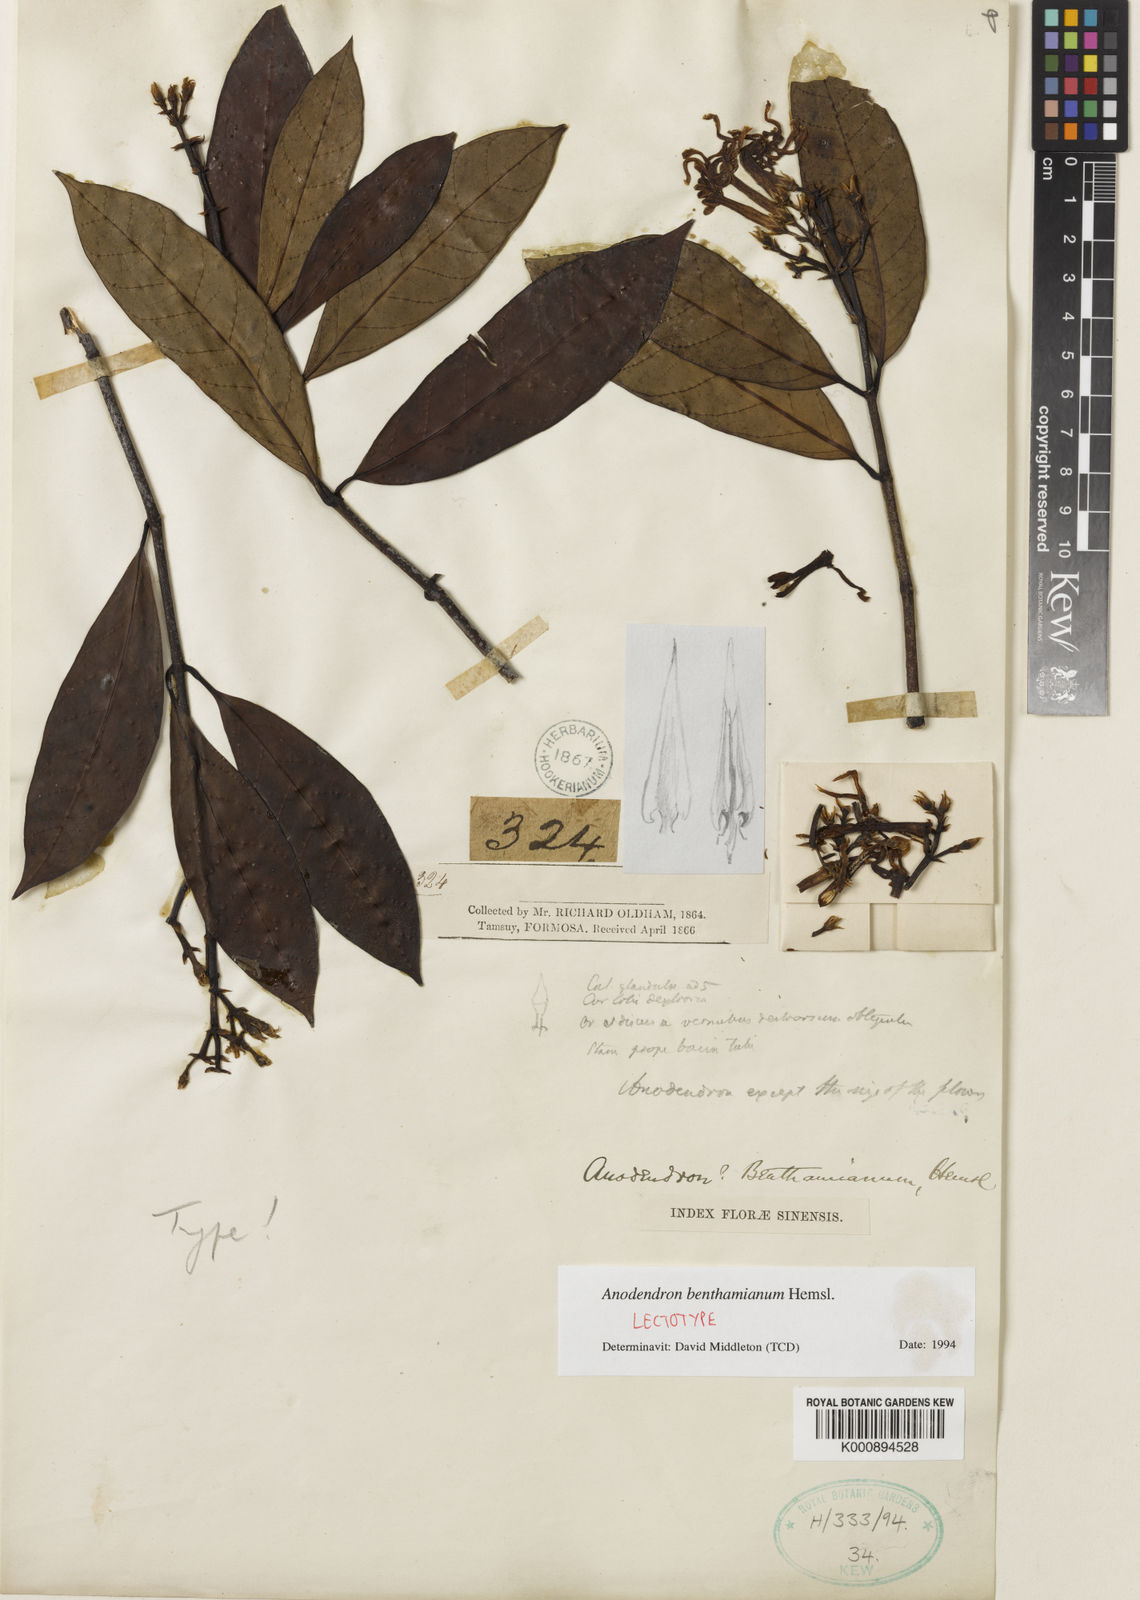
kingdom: Plantae
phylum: Tracheophyta
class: Magnoliopsida
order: Gentianales
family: Apocynaceae
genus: Anodendron
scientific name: Anodendron benthamianum
